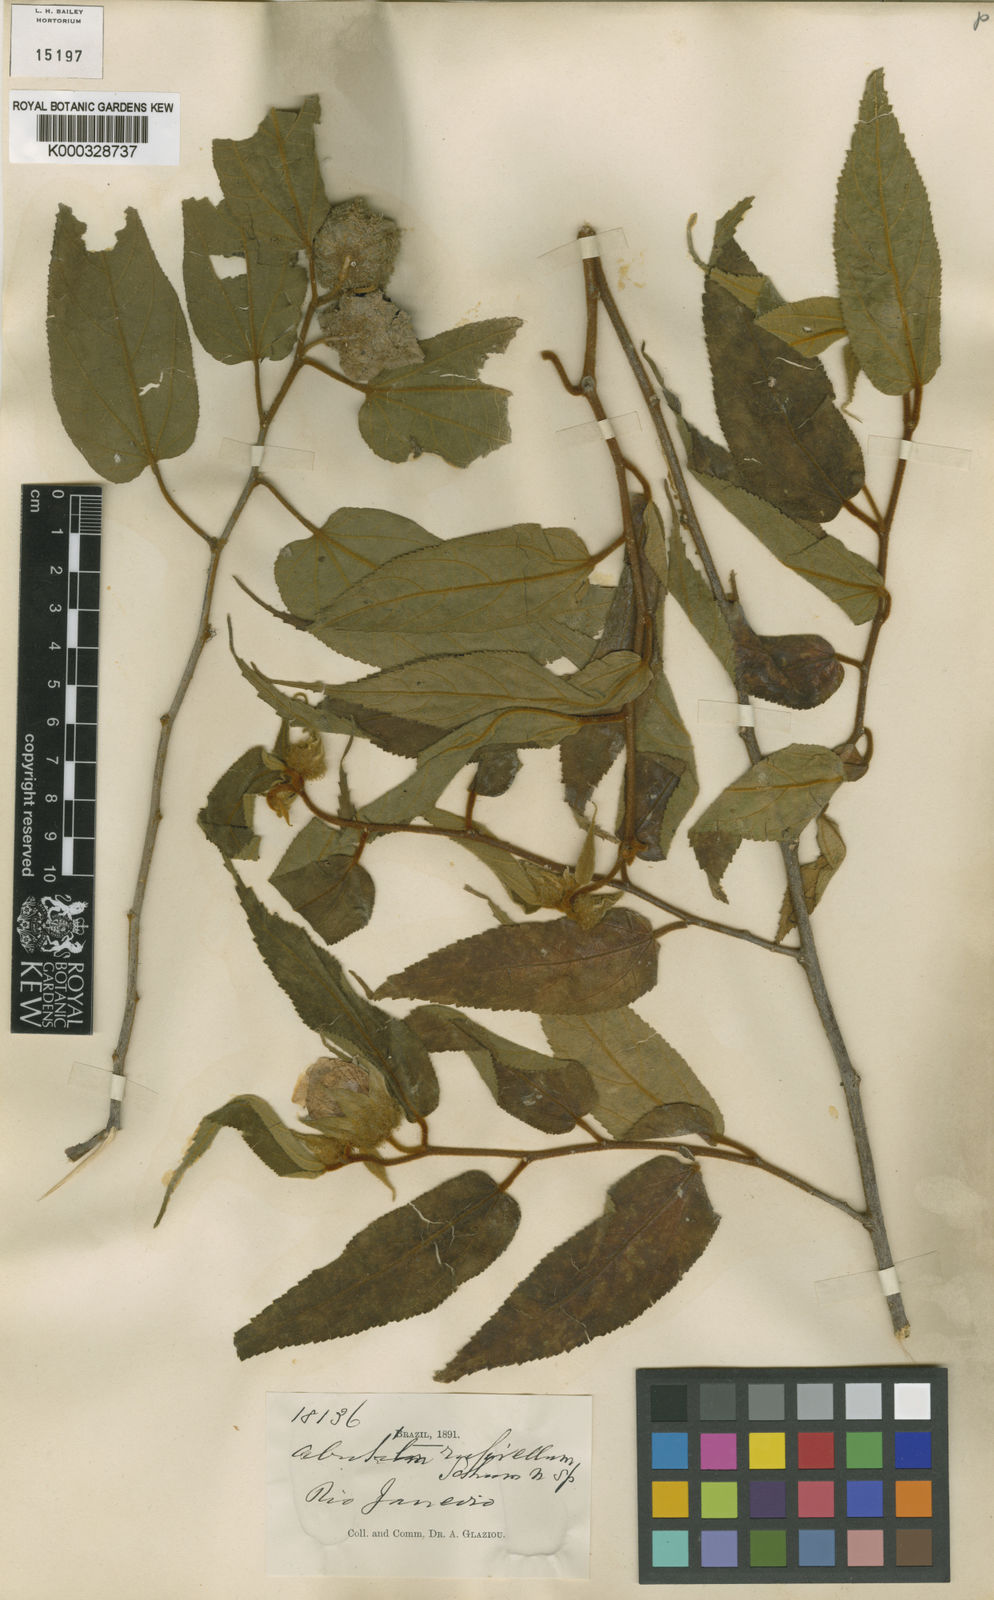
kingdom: Plantae
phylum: Tracheophyta
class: Magnoliopsida
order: Malvales
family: Malvaceae
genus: Abutilon
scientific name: Abutilon
